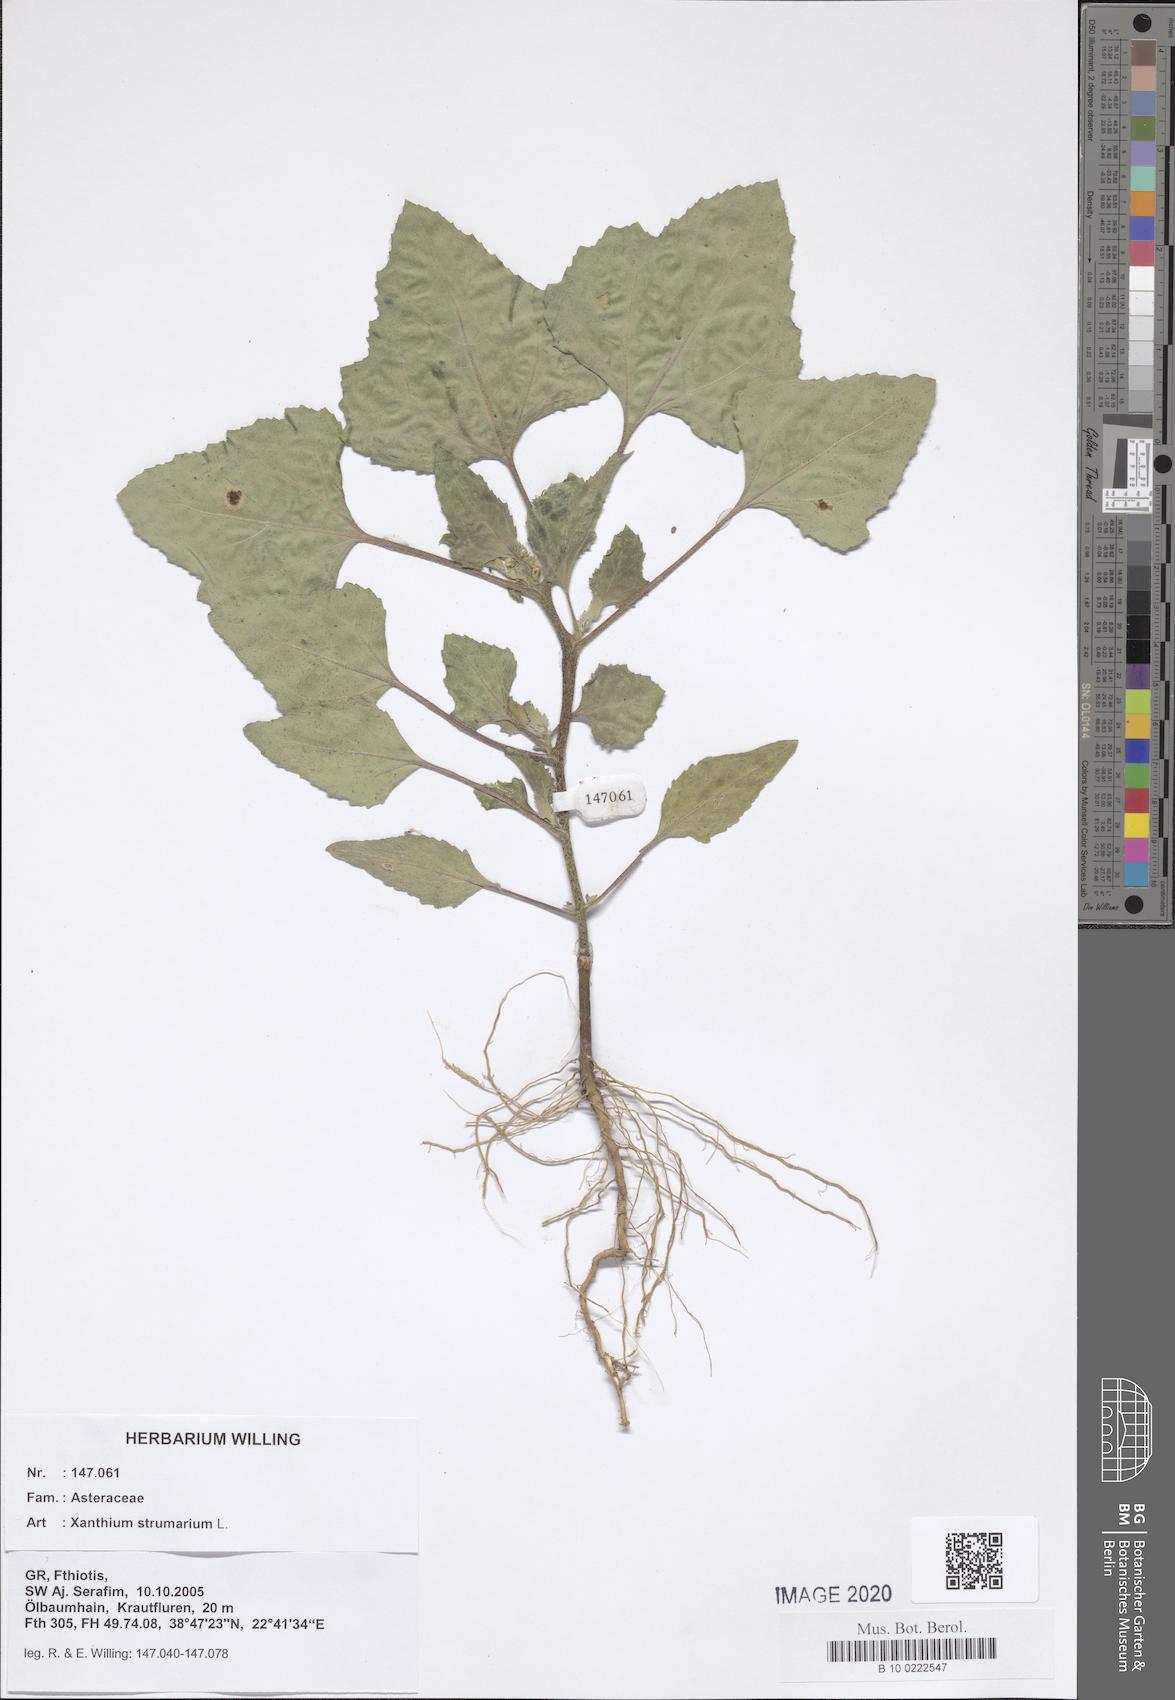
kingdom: Plantae
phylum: Tracheophyta
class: Magnoliopsida
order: Asterales
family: Asteraceae
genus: Xanthium
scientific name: Xanthium strumarium
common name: Rough cocklebur
